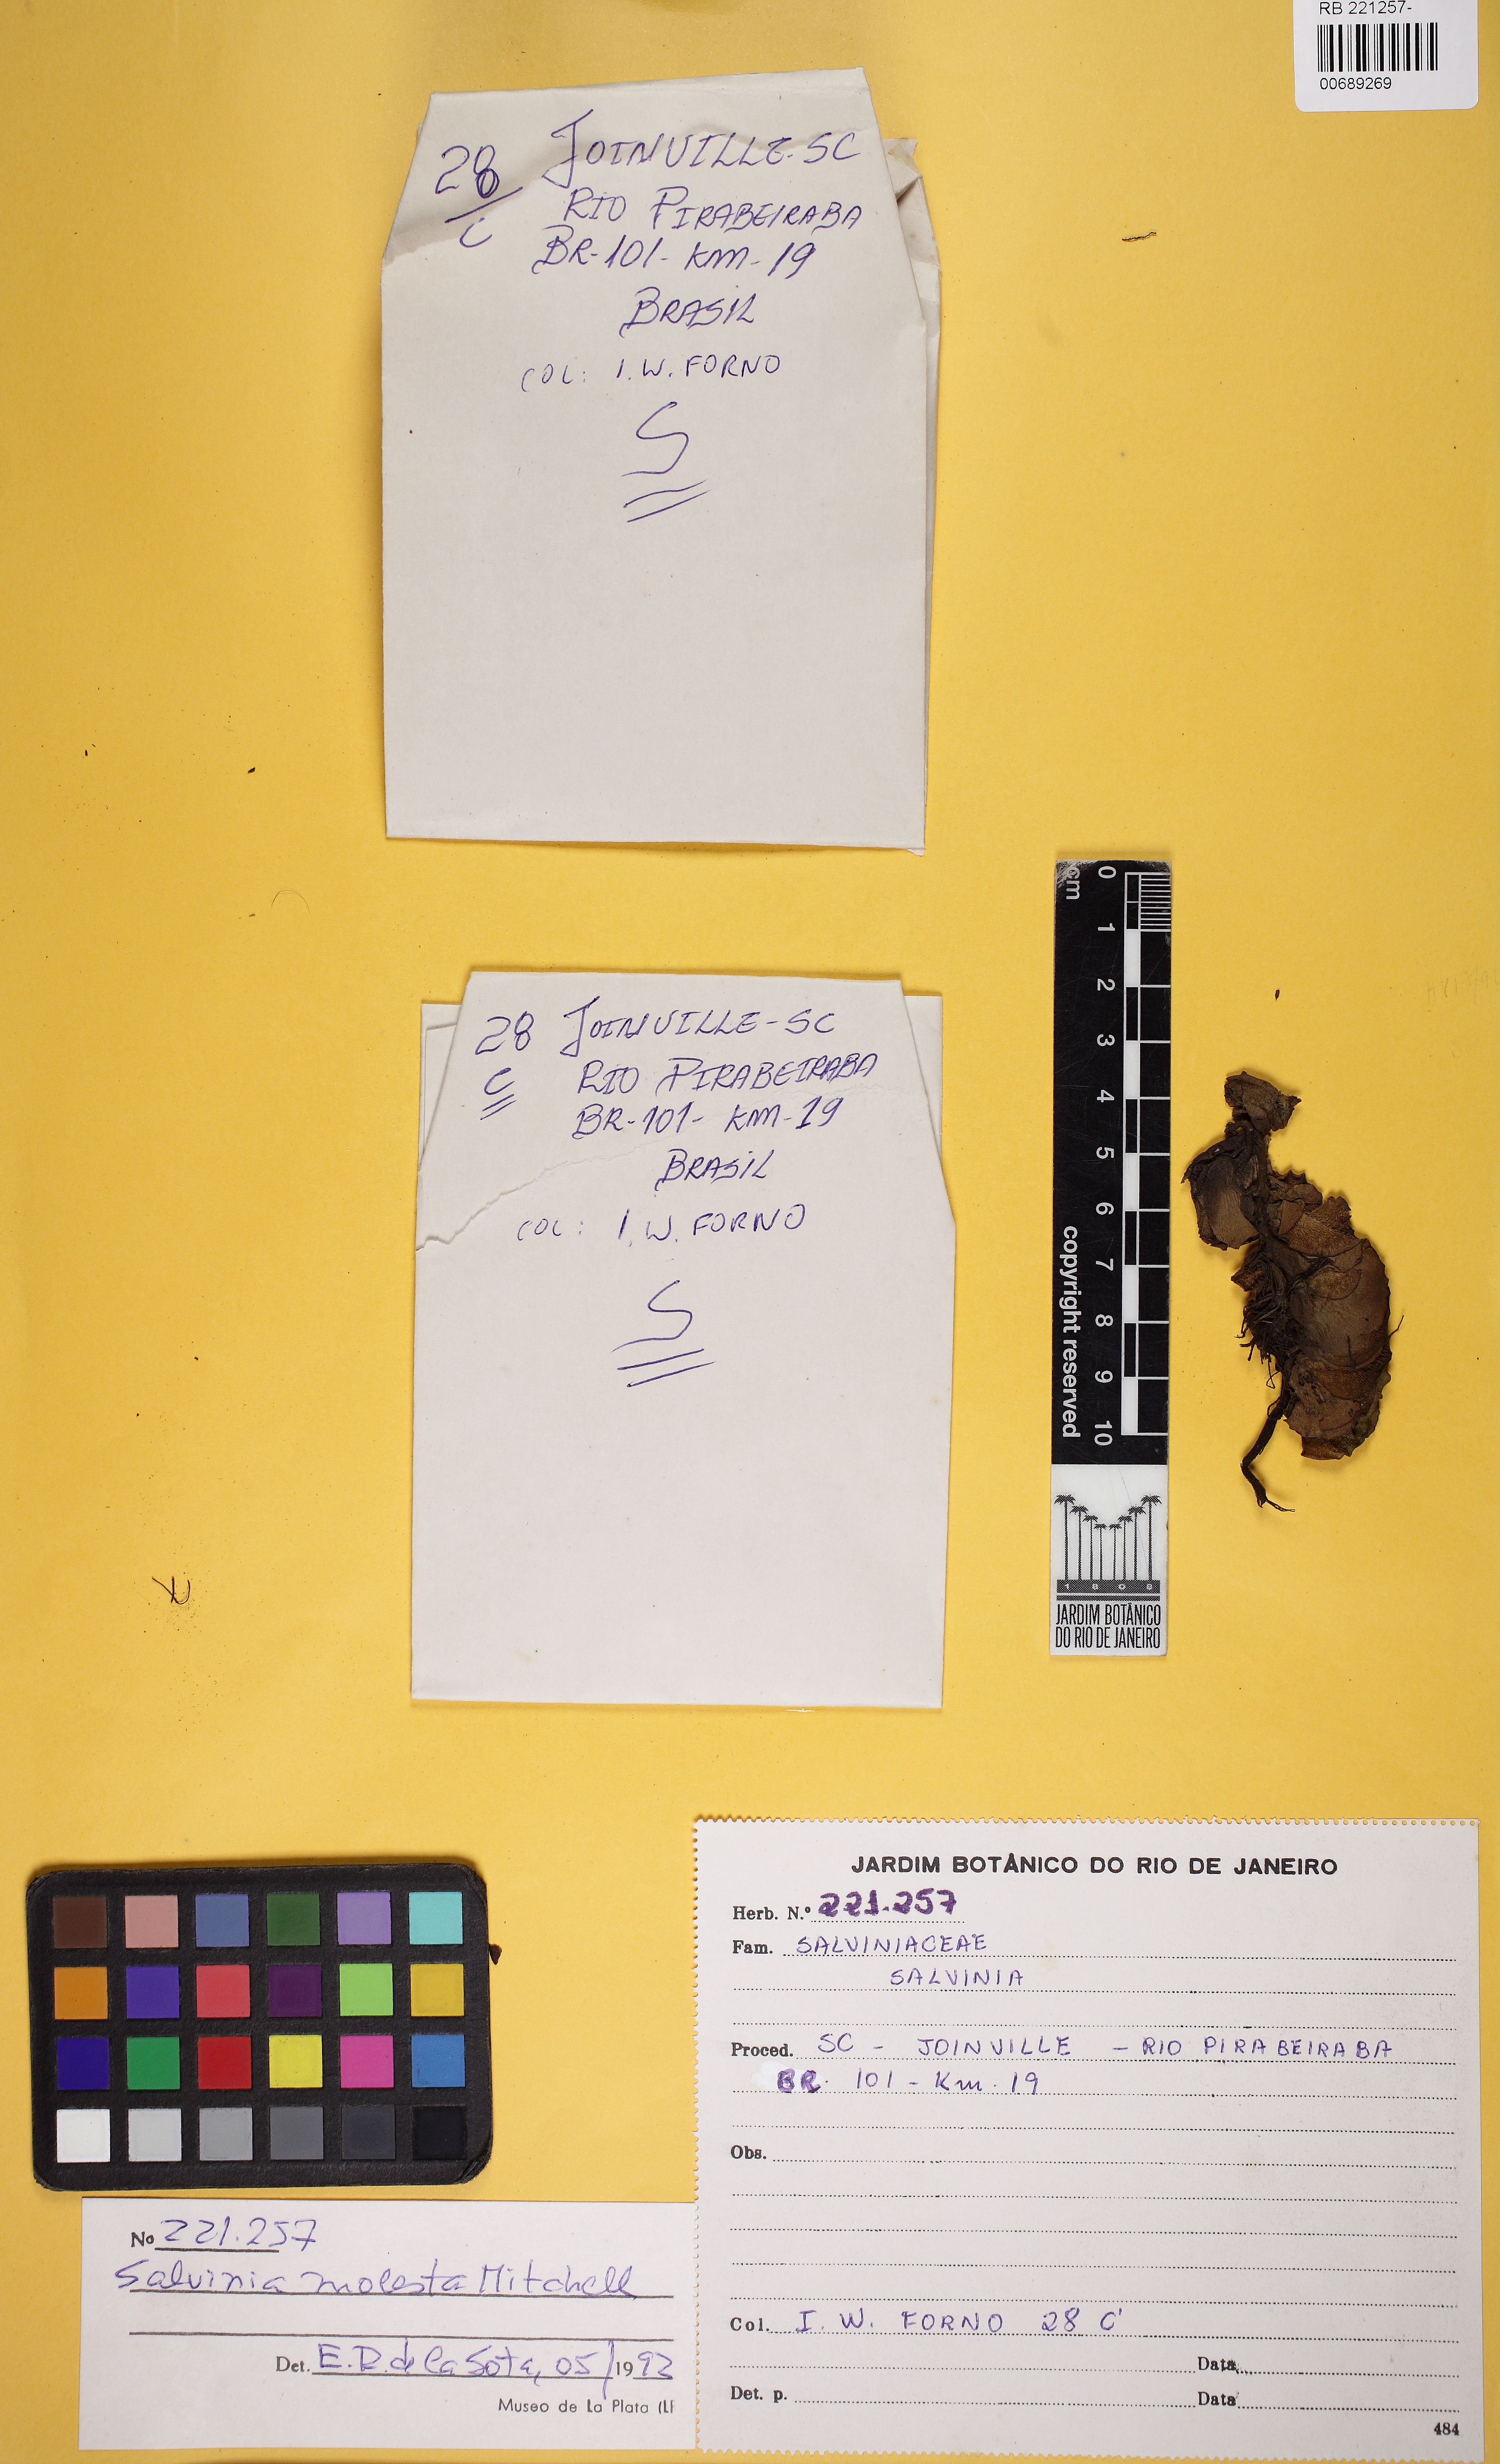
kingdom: Plantae
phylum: Tracheophyta
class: Polypodiopsida
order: Salviniales
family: Salviniaceae
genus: Salvinia
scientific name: Salvinia molesta
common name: Kariba weed
